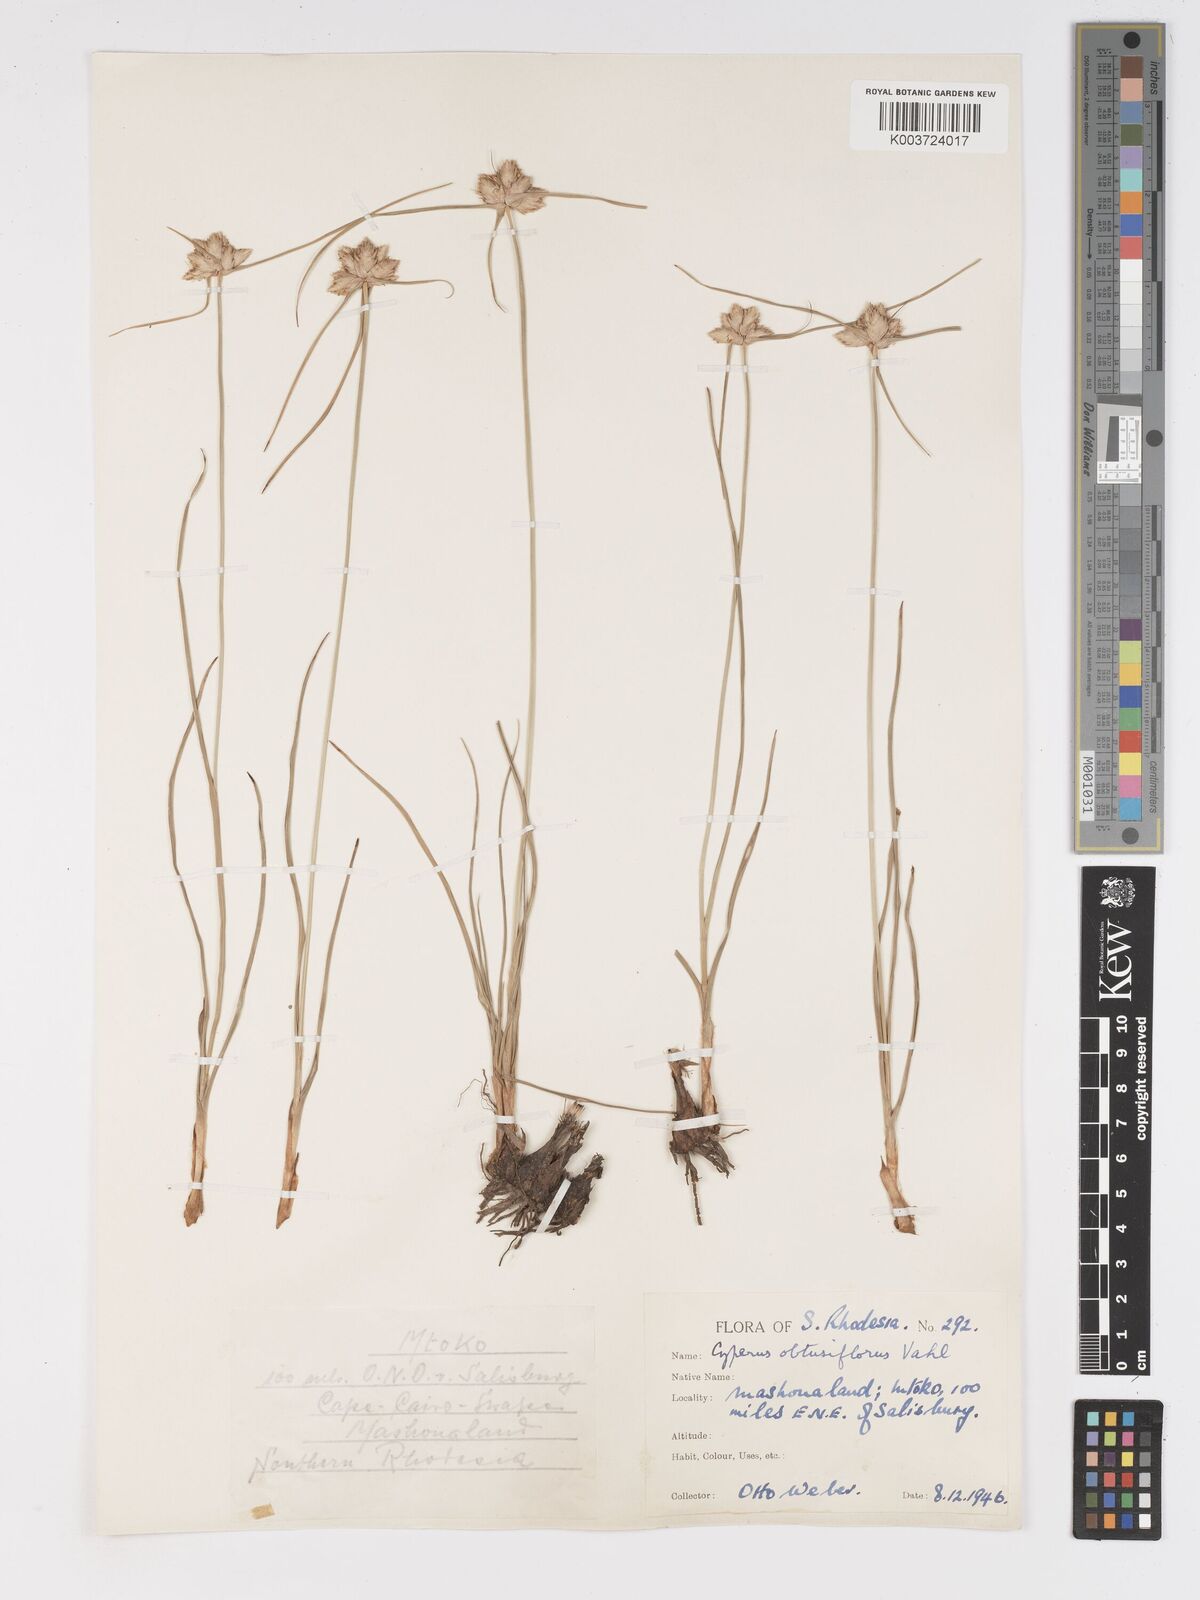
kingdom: Plantae
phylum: Tracheophyta
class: Liliopsida
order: Poales
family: Cyperaceae
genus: Cyperus
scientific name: Cyperus niveus
